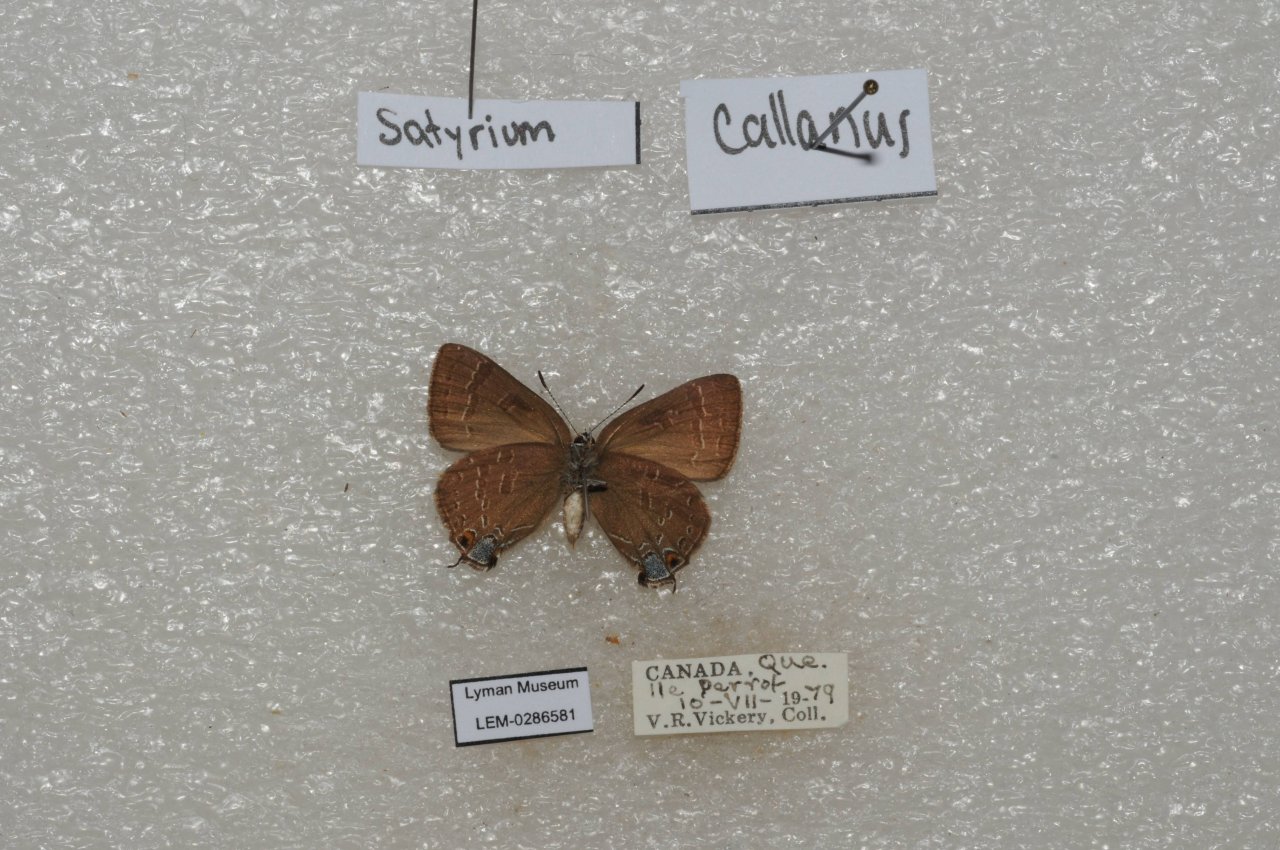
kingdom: Animalia
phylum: Arthropoda
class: Insecta
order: Lepidoptera
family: Lycaenidae
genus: Satyrium
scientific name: Satyrium calanus
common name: Banded Hairstreak
